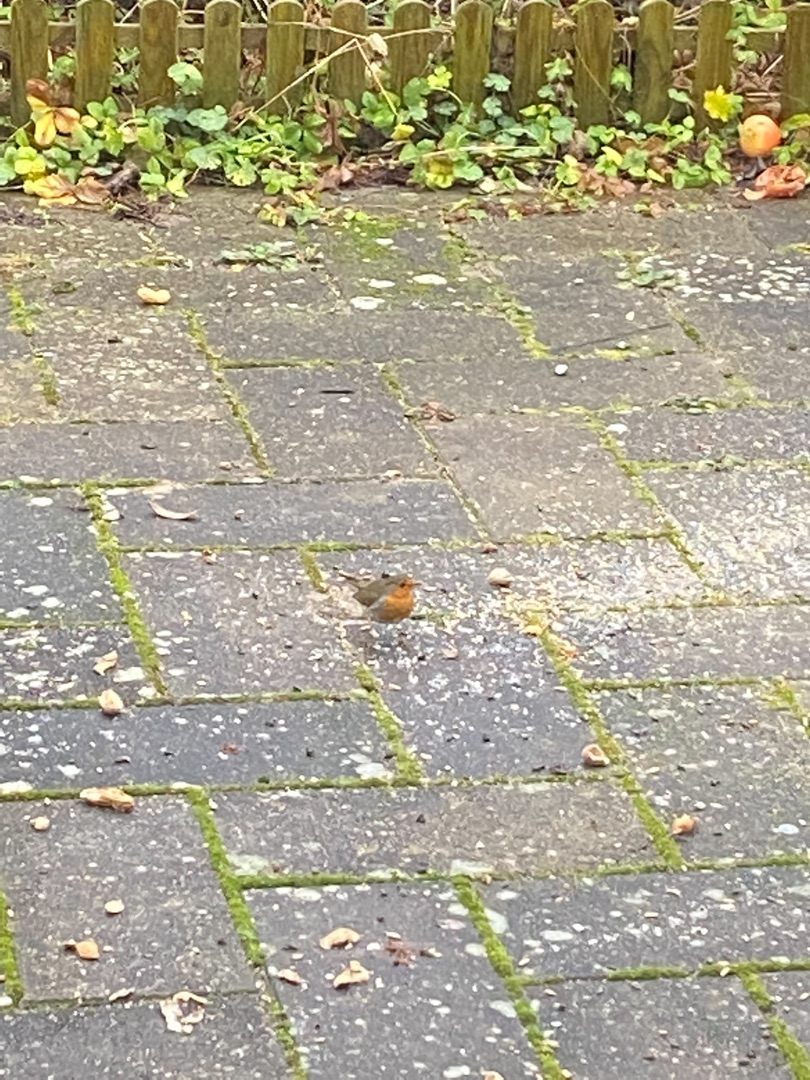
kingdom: Animalia
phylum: Chordata
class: Aves
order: Passeriformes
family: Muscicapidae
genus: Erithacus
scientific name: Erithacus rubecula
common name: Rødhals/rødkælk
